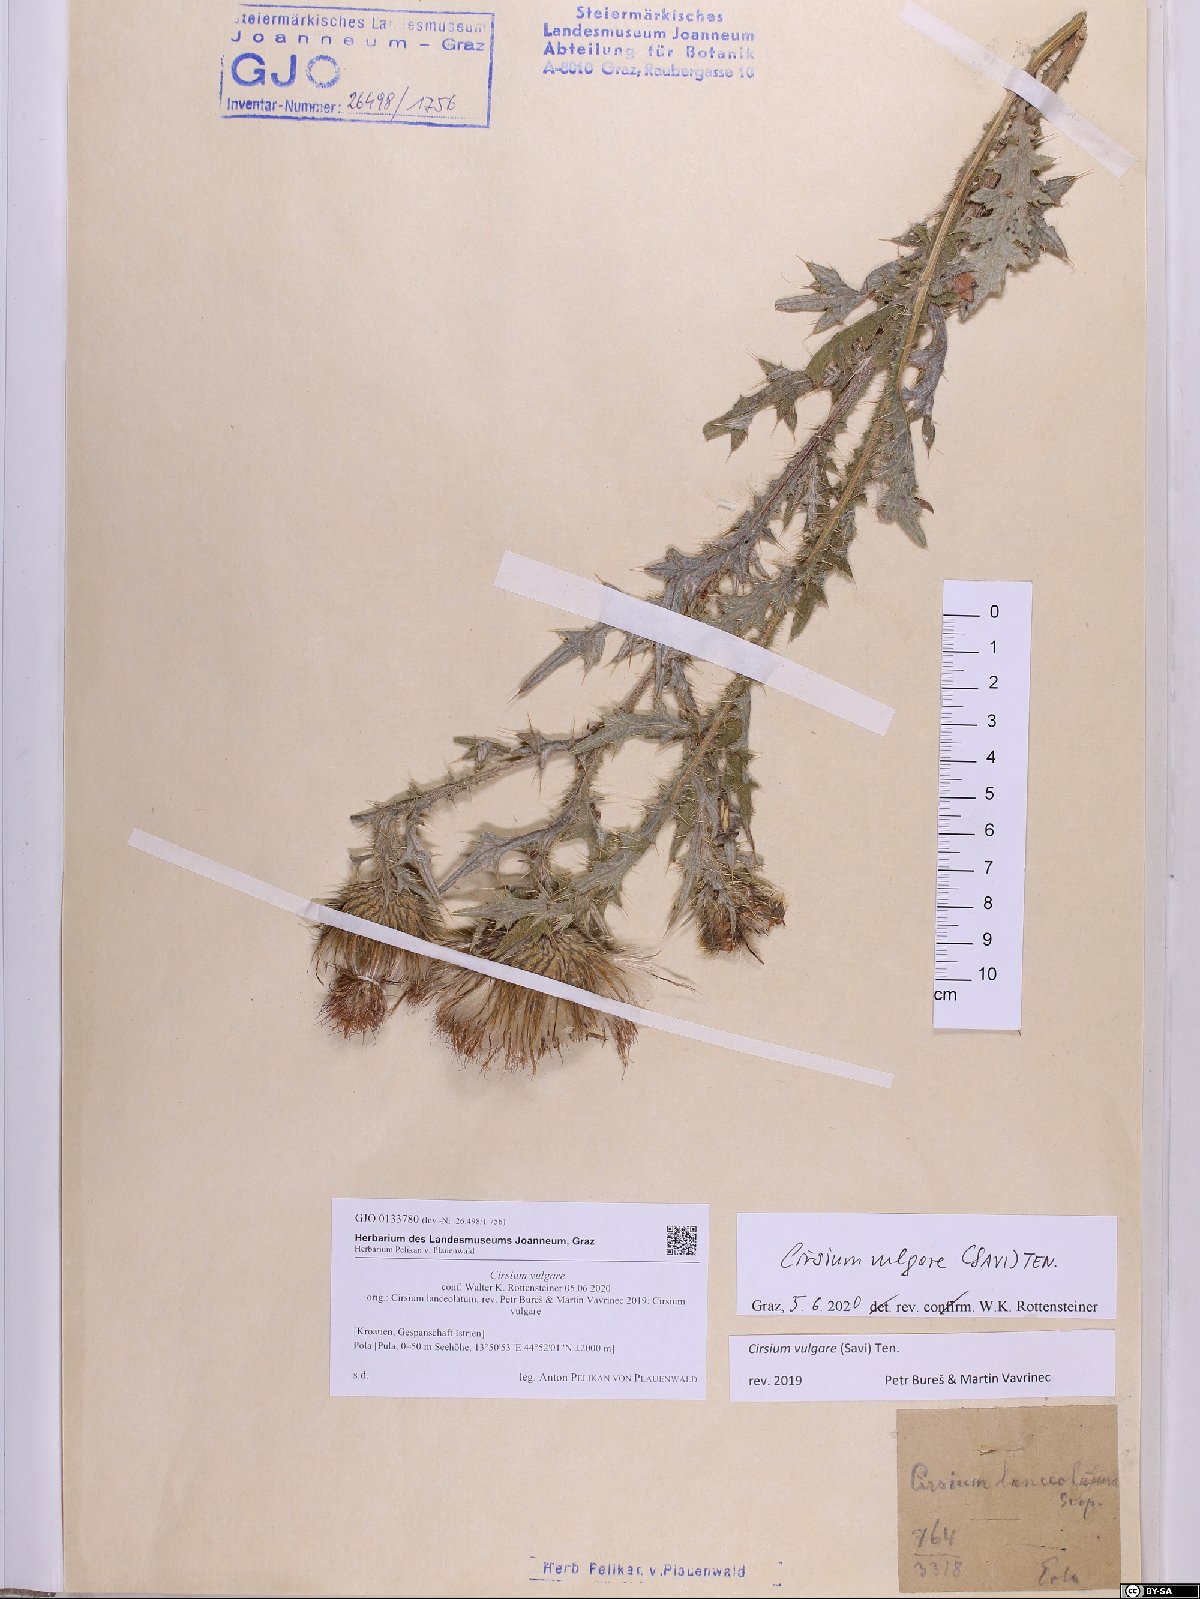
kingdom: Plantae
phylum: Tracheophyta
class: Magnoliopsida
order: Asterales
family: Asteraceae
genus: Cirsium
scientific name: Cirsium vulgare
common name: Bull thistle
